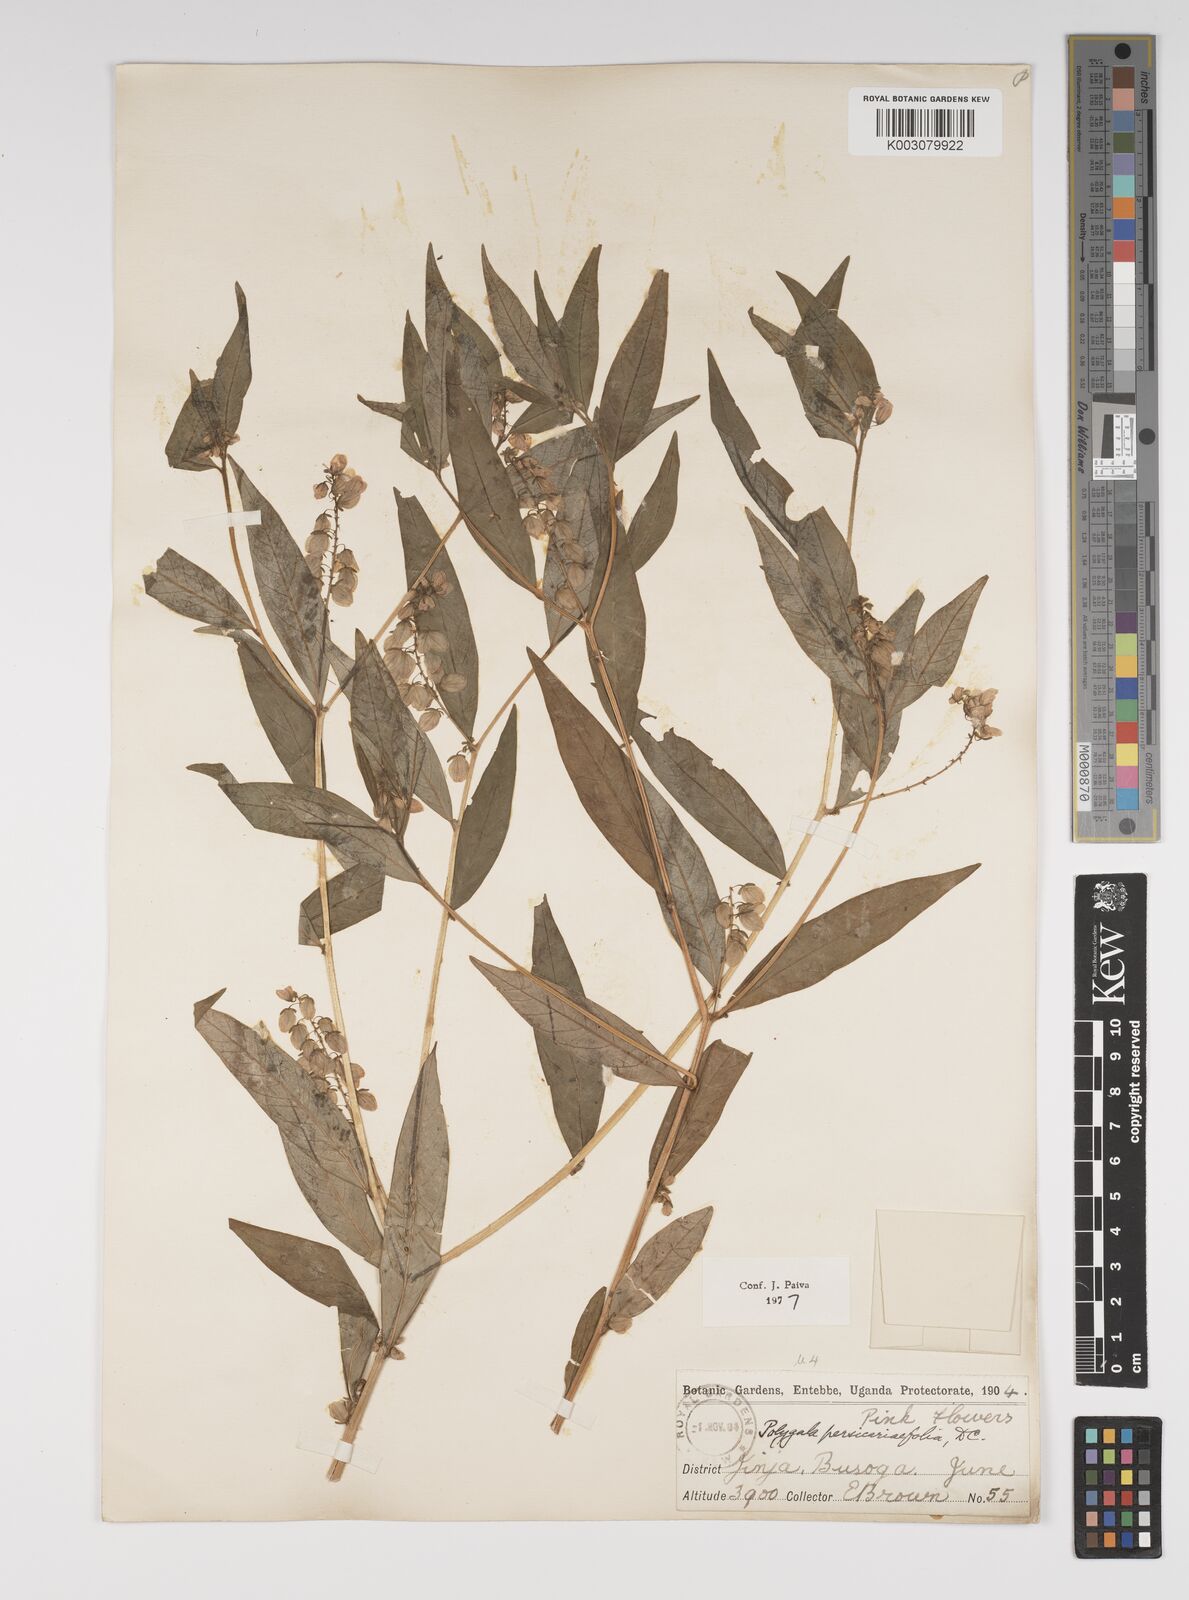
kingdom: Plantae
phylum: Tracheophyta
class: Magnoliopsida
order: Fabales
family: Polygalaceae
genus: Polygala
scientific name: Polygala persicariifolia
